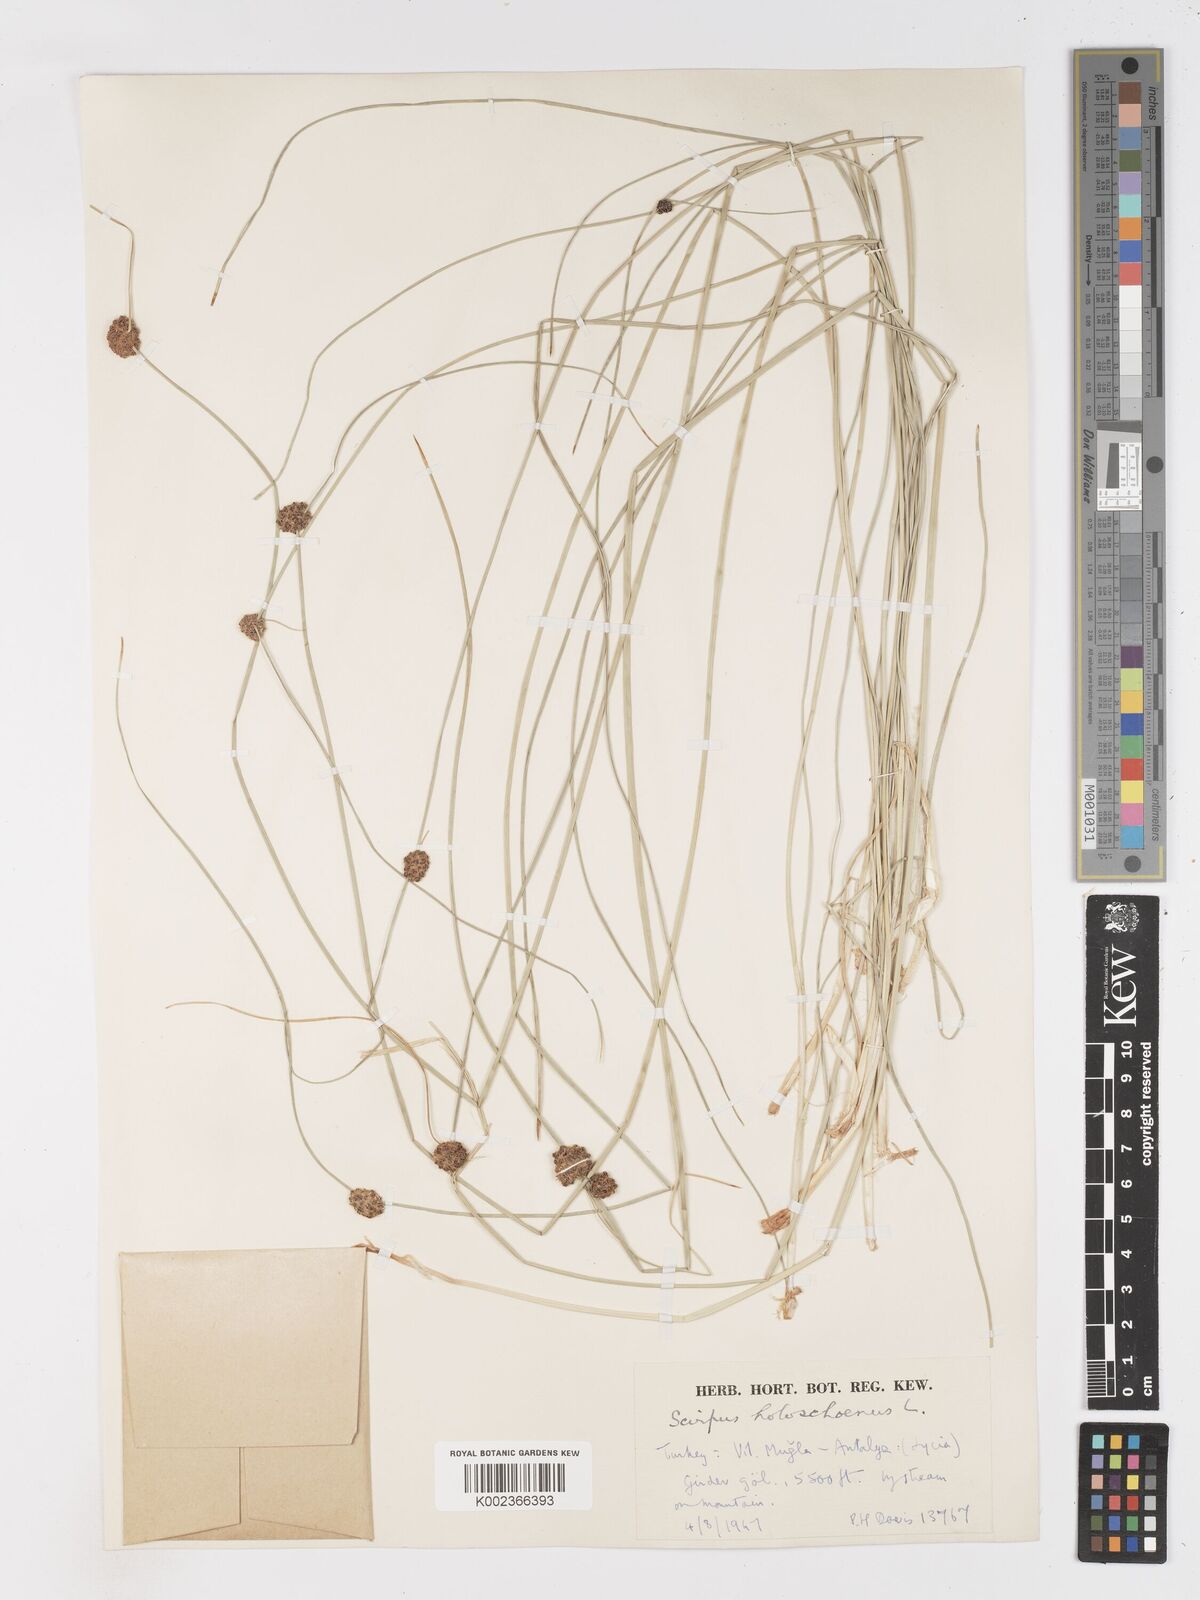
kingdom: Plantae
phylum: Tracheophyta
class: Liliopsida
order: Poales
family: Cyperaceae
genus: Scirpoides
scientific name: Scirpoides holoschoenus
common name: Round-headed club-rush
